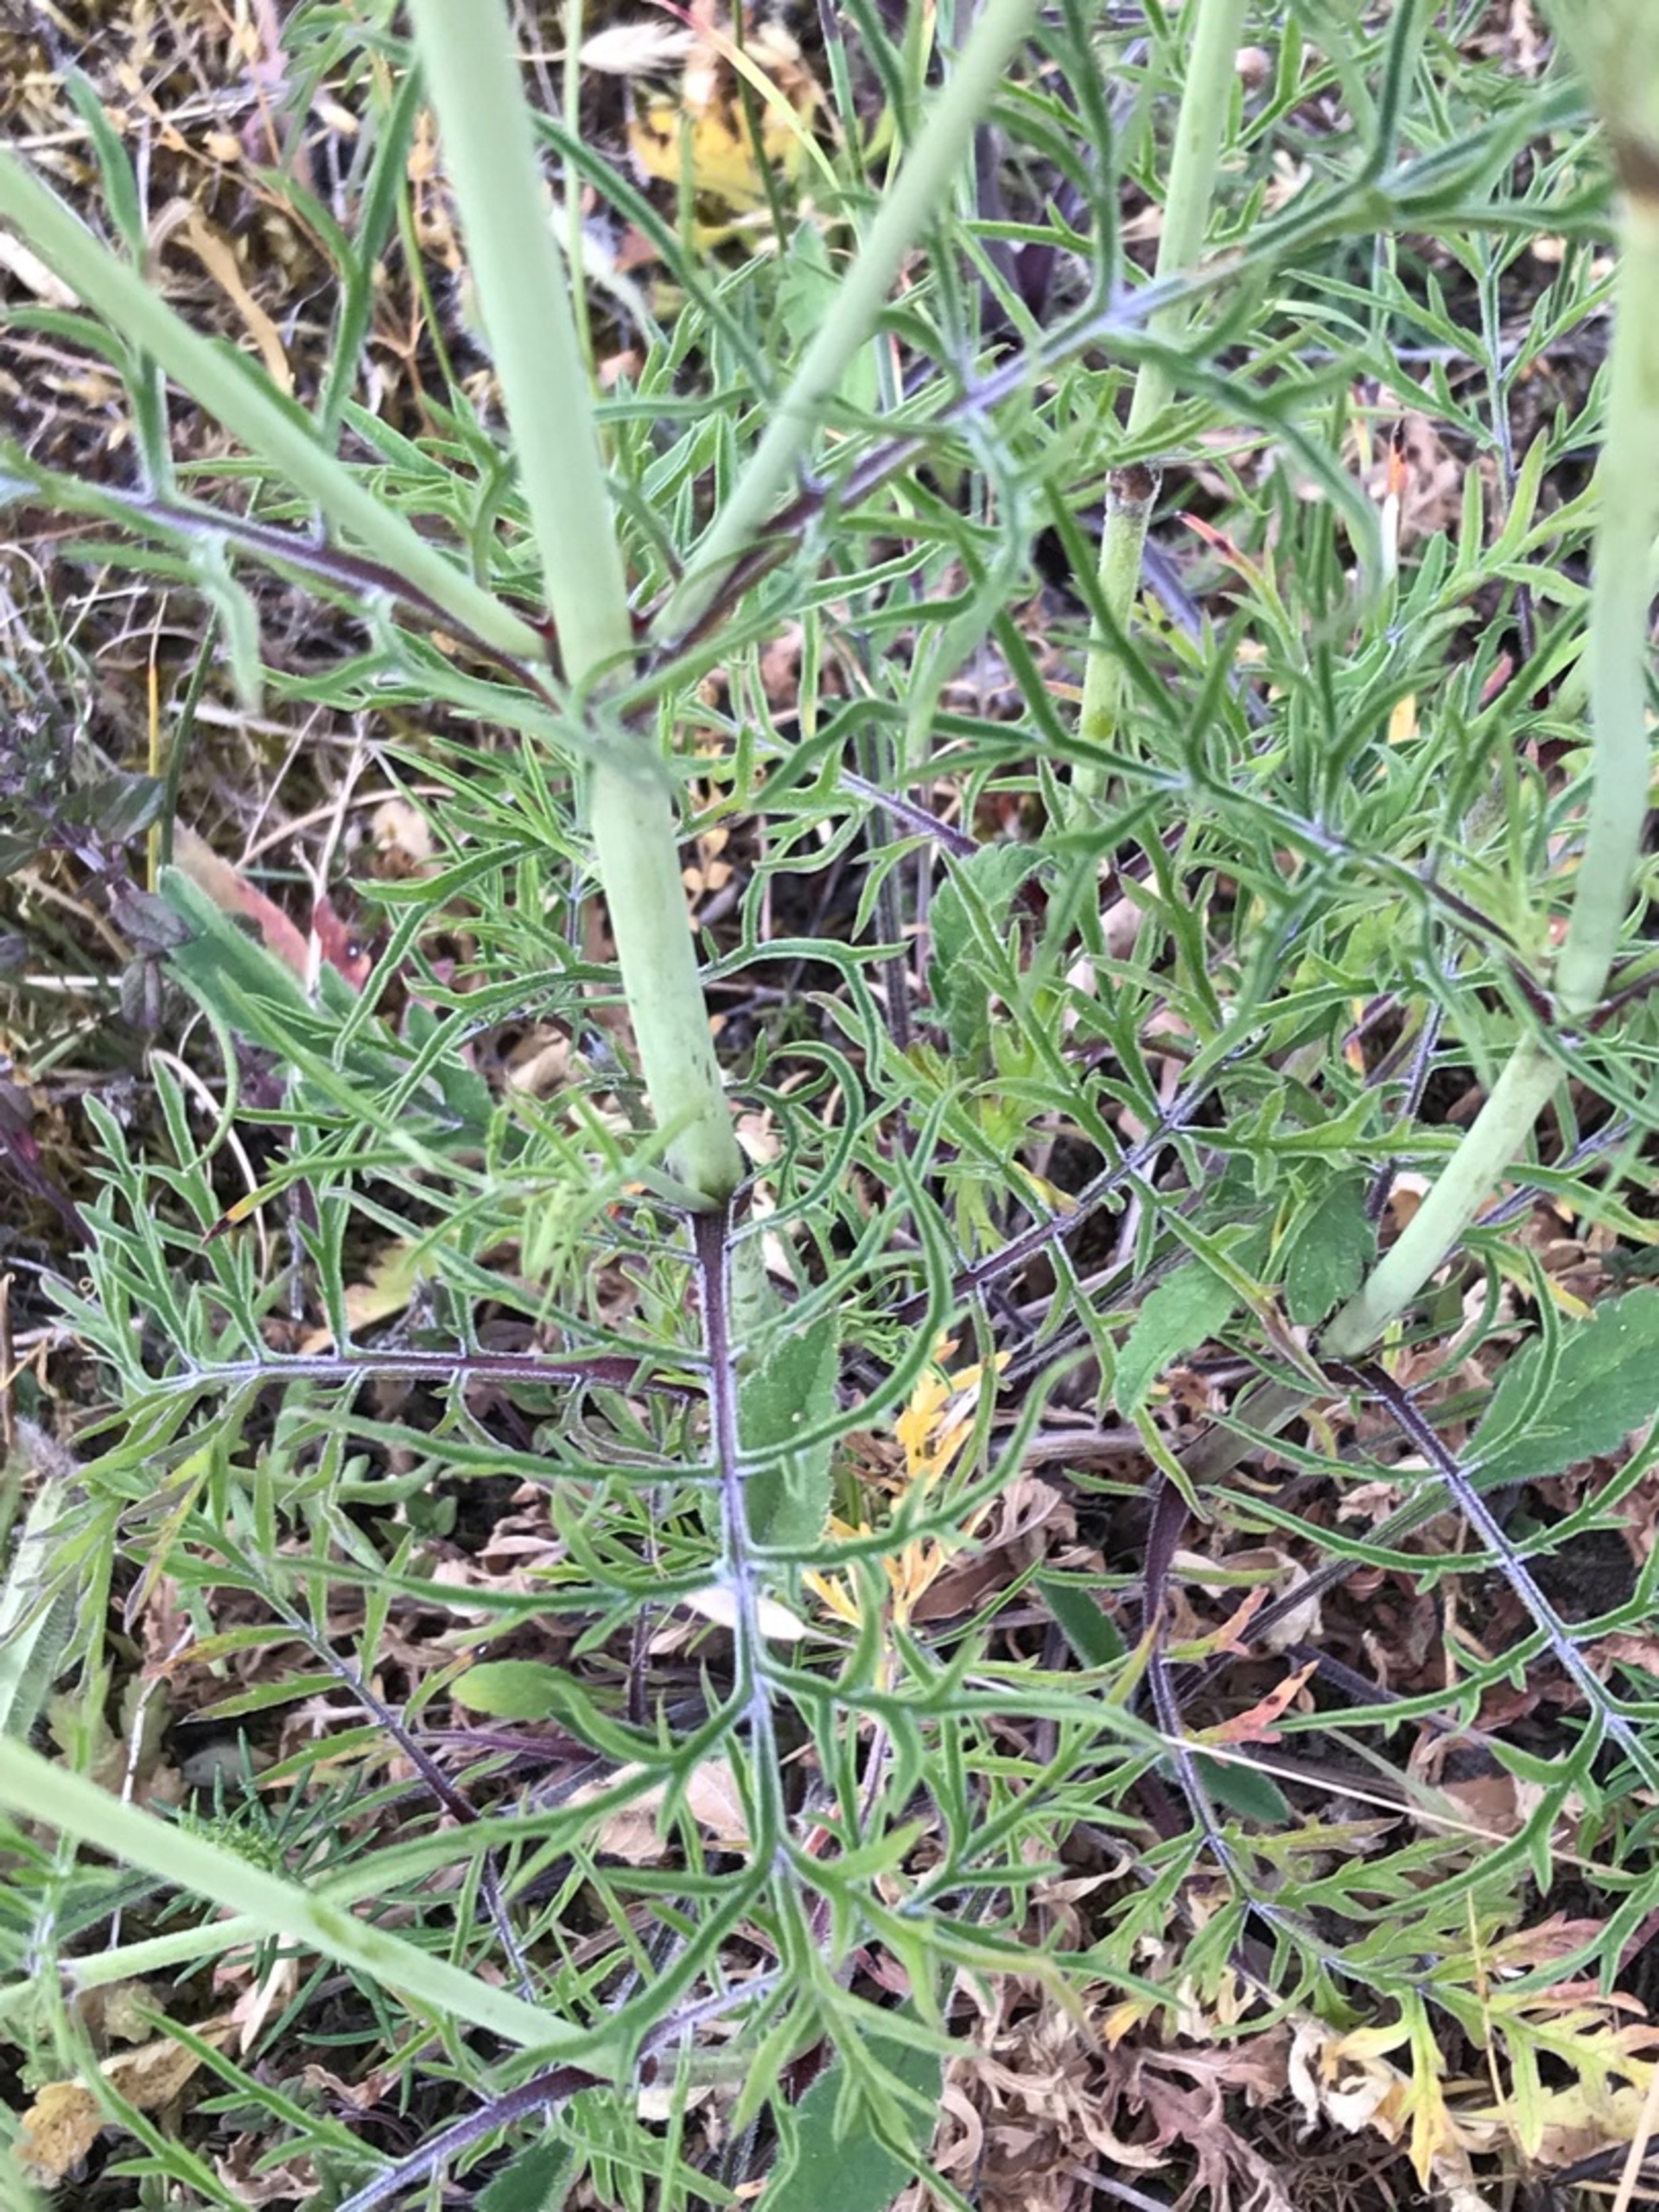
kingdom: Plantae
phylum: Tracheophyta
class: Magnoliopsida
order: Dipsacales
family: Caprifoliaceae
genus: Scabiosa
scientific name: Scabiosa columbaria
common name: Due-skabiose
